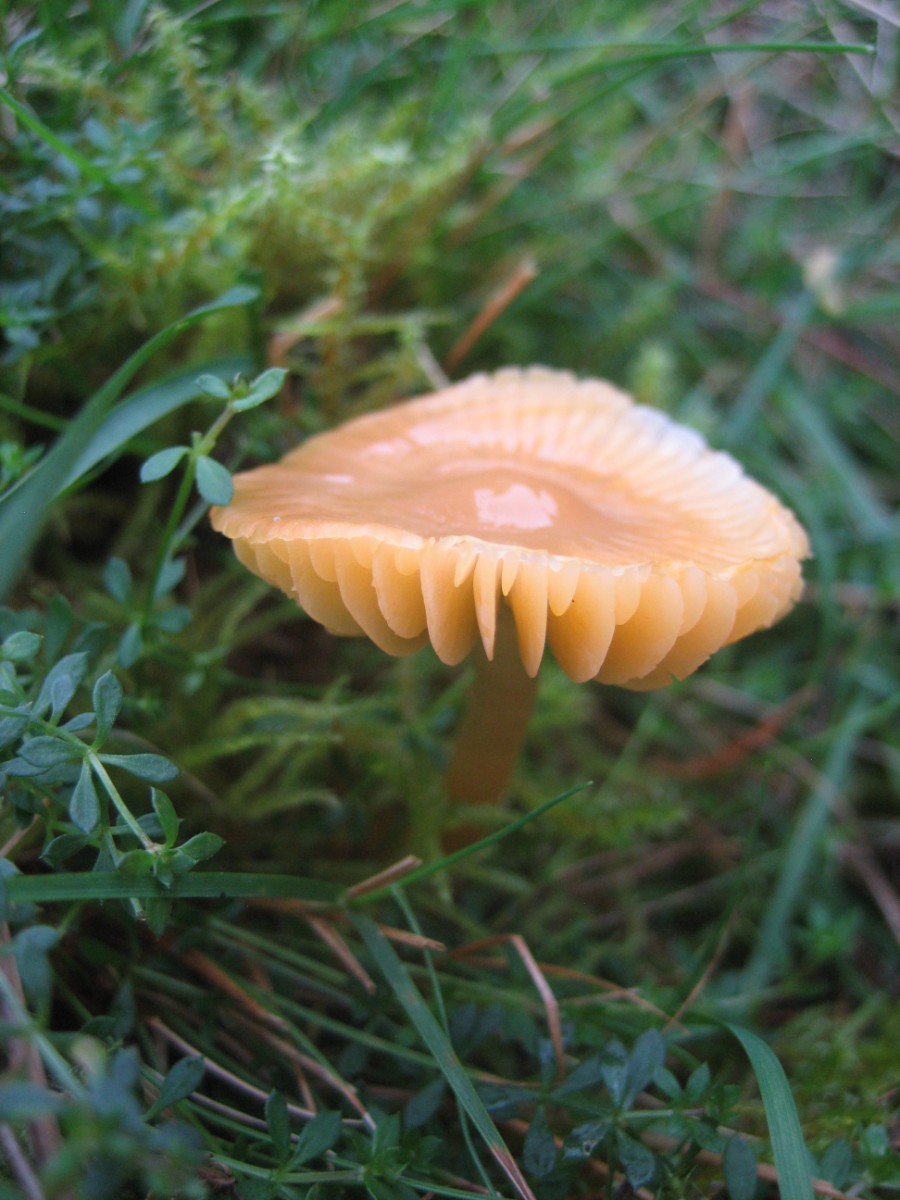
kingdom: Fungi
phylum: Basidiomycota
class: Agaricomycetes
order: Agaricales
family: Hygrophoraceae
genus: Gliophorus
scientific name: Gliophorus psittacinus
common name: papegøje-vokshat
